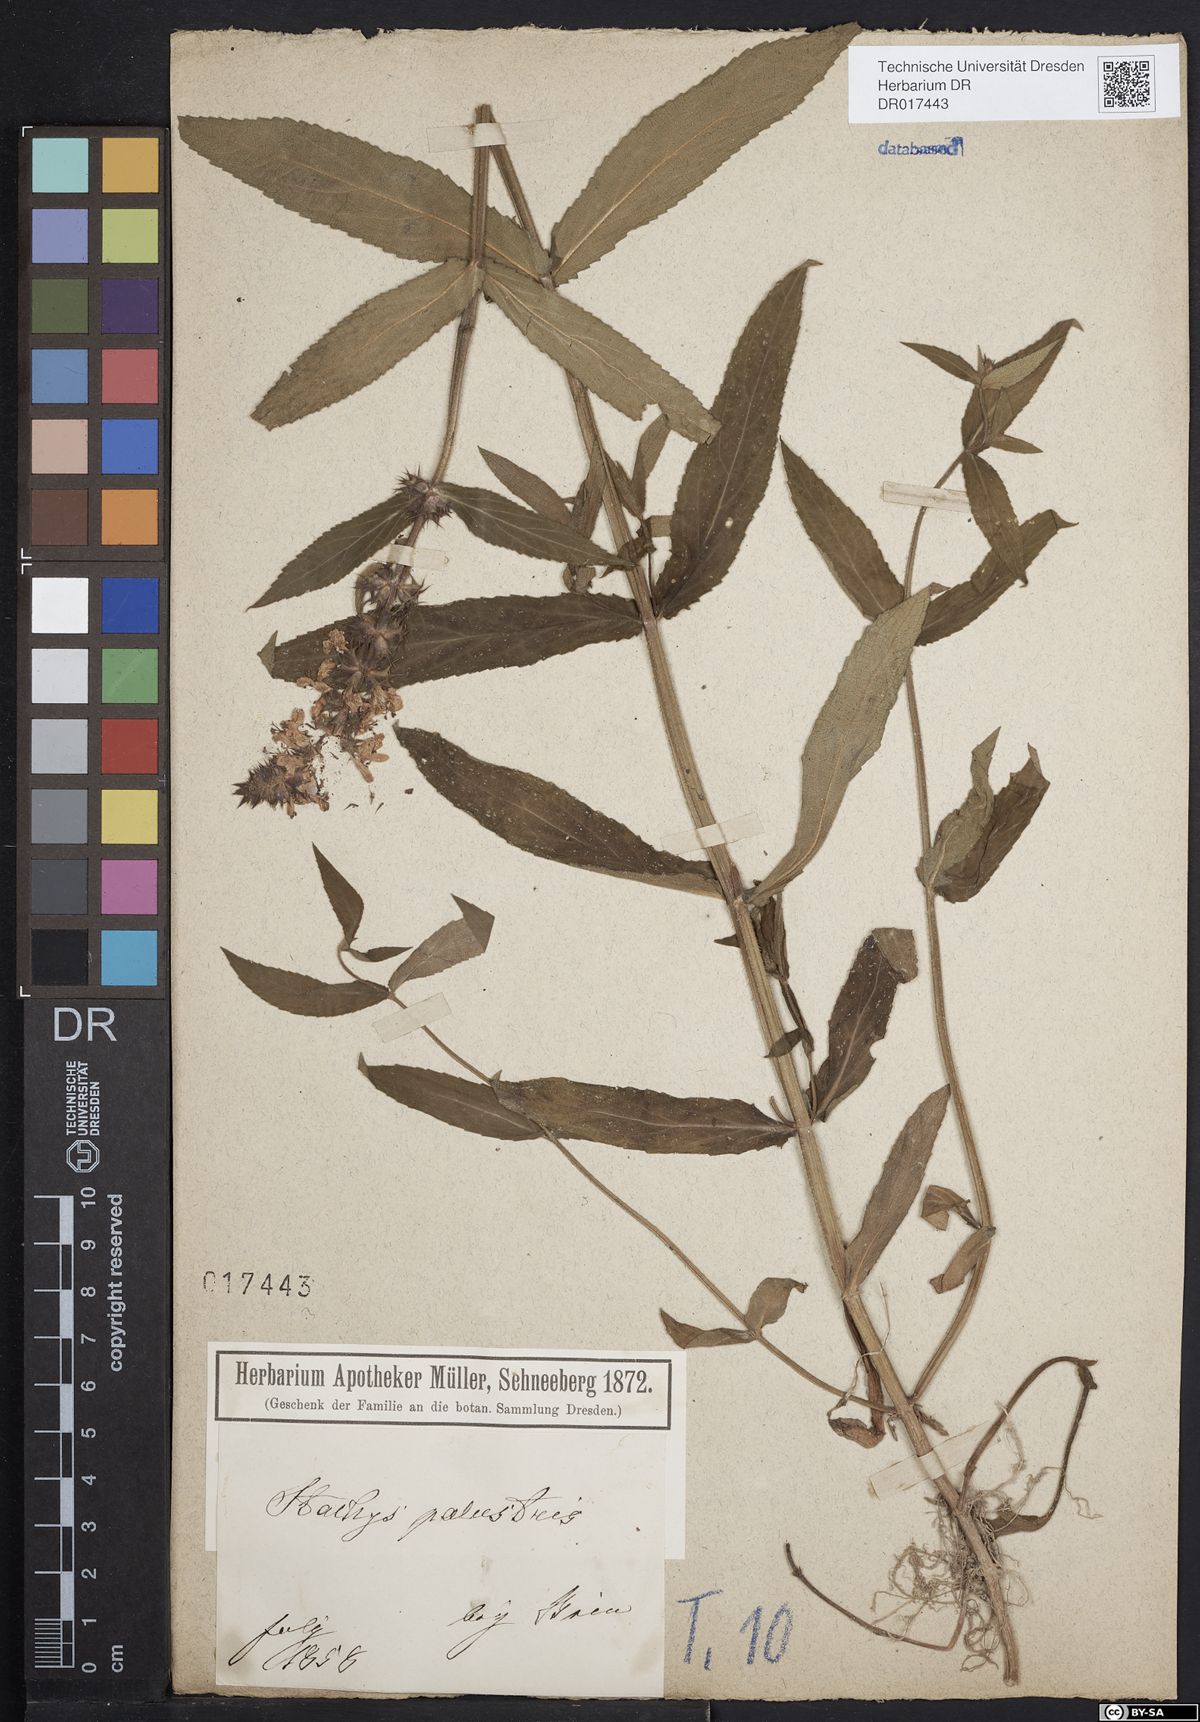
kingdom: Plantae
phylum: Tracheophyta
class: Magnoliopsida
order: Lamiales
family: Lamiaceae
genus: Stachys
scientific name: Stachys palustris
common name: Marsh woundwort
